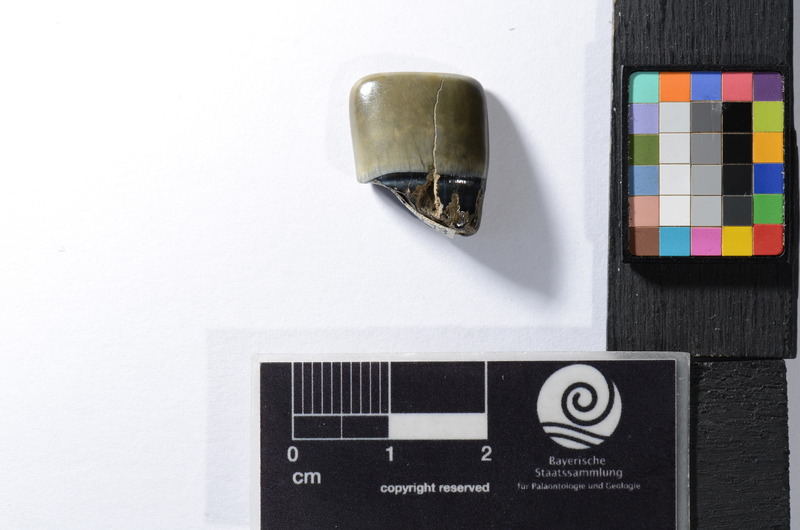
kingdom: Animalia
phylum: Chordata
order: Tetraodontiformes
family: Trigonodontidae
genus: Trigonodon
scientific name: Trigonodon Radamas jugleri
